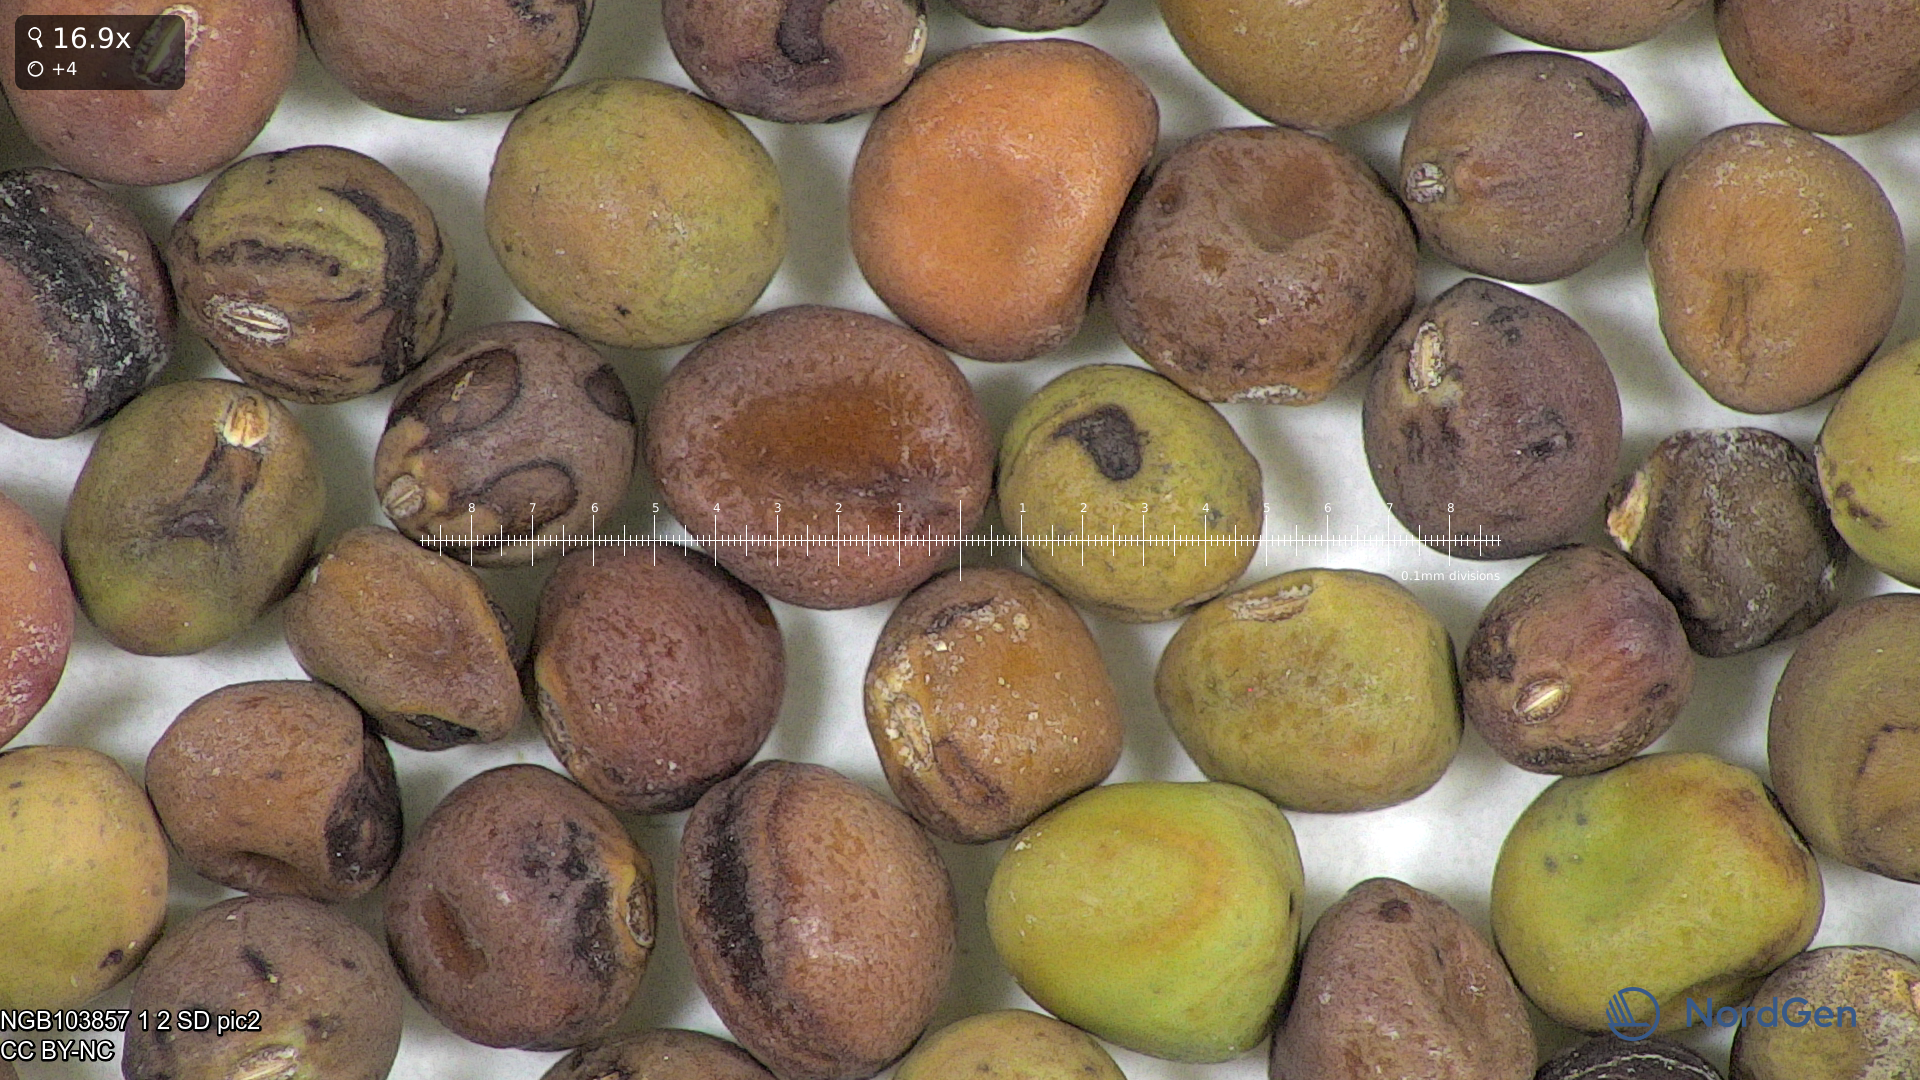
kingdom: Plantae
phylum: Tracheophyta
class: Magnoliopsida
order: Fabales
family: Fabaceae
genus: Lathyrus
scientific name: Lathyrus oleraceus
